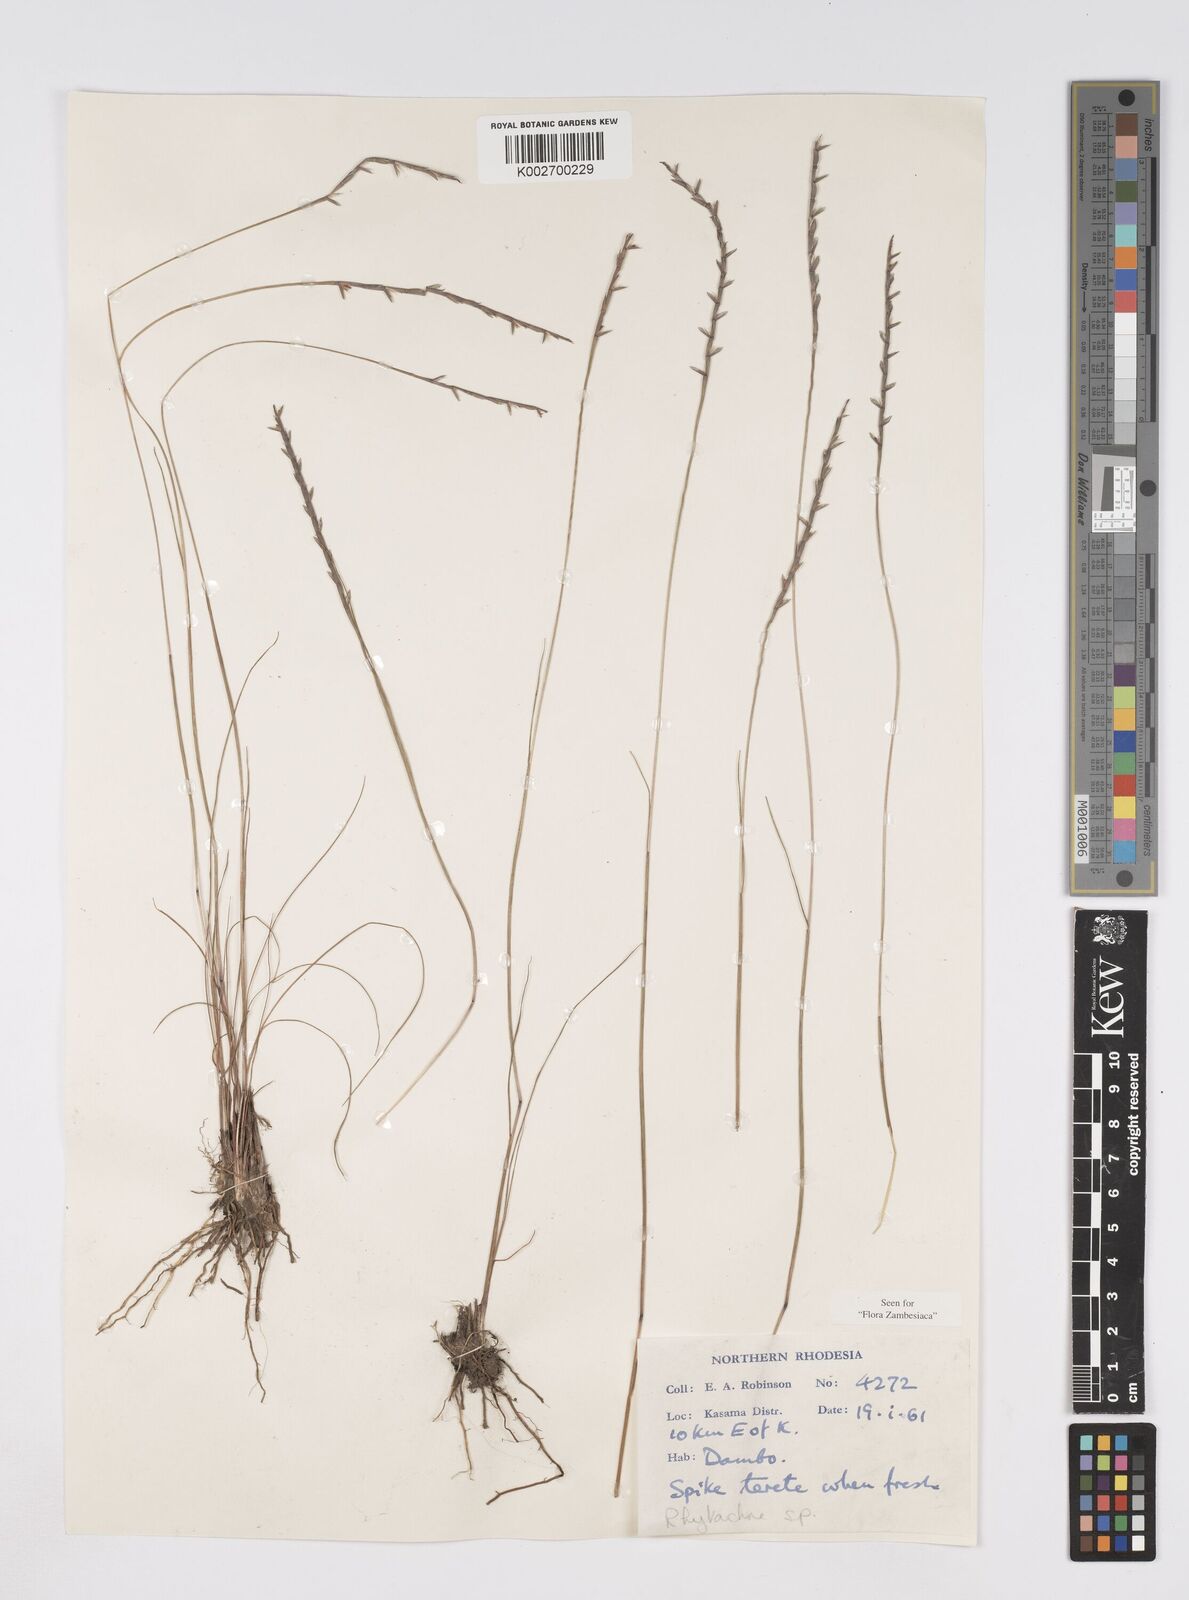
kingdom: Plantae
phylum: Tracheophyta
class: Liliopsida
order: Poales
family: Poaceae
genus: Rhytachne
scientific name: Rhytachne rottboellioides
